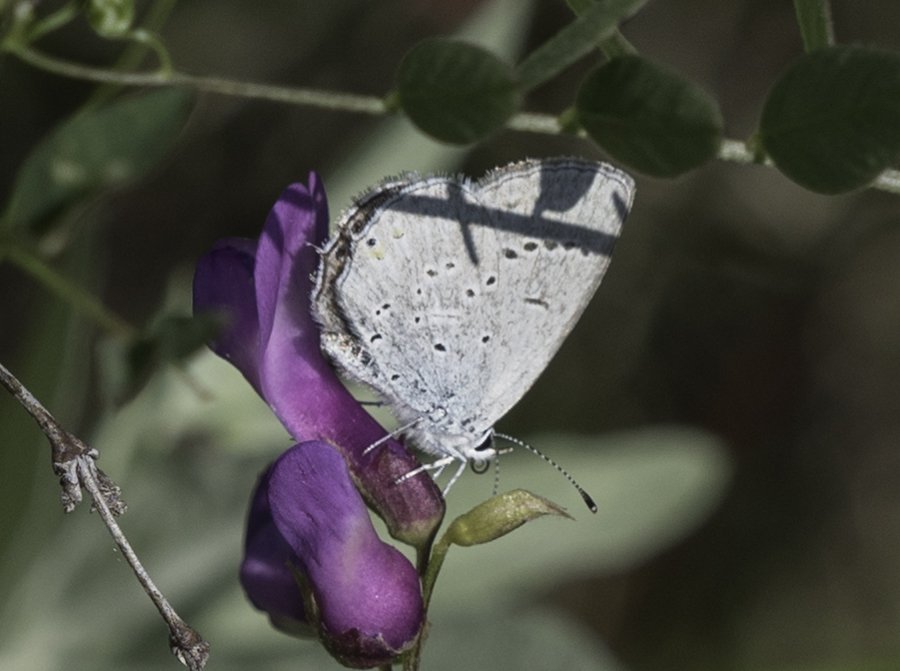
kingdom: Animalia
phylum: Arthropoda
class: Insecta
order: Lepidoptera
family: Lycaenidae
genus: Elkalyce
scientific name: Elkalyce amyntula
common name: Western Tailed-Blue
